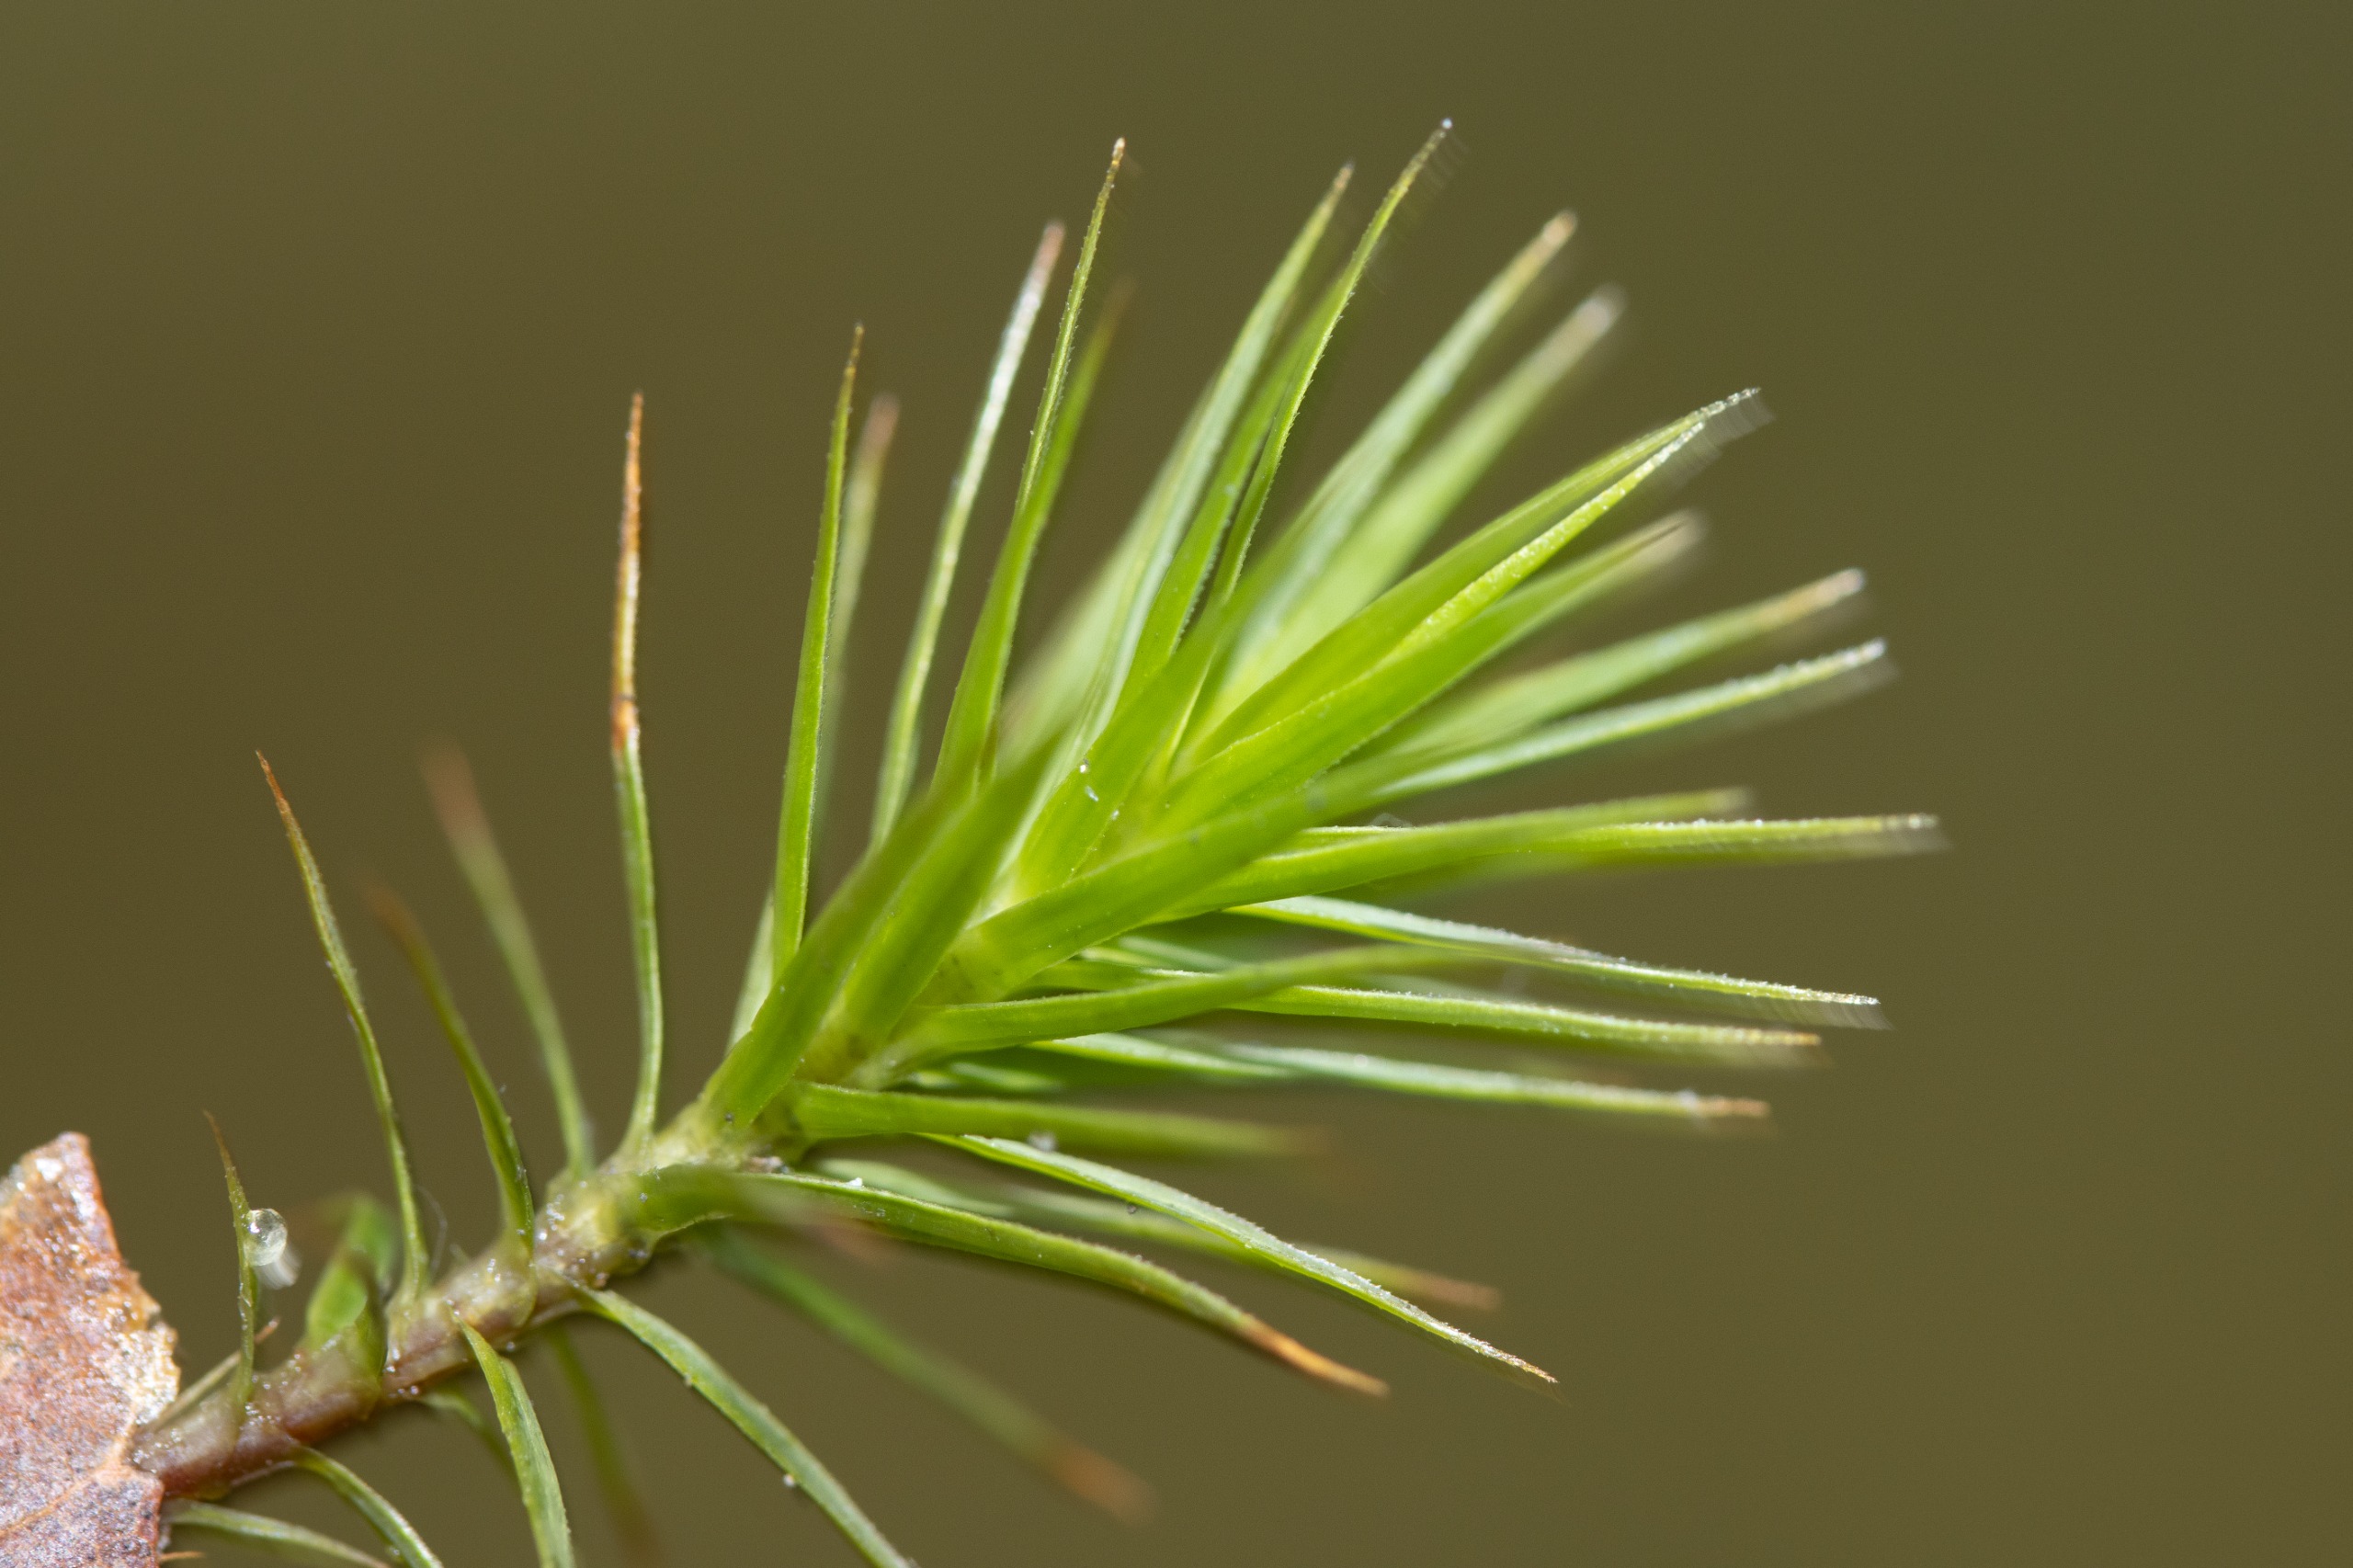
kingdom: Plantae
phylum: Bryophyta
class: Polytrichopsida
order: Polytrichales
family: Polytrichaceae
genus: Polytrichum
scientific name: Polytrichum formosum
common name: Skov-jomfruhår
